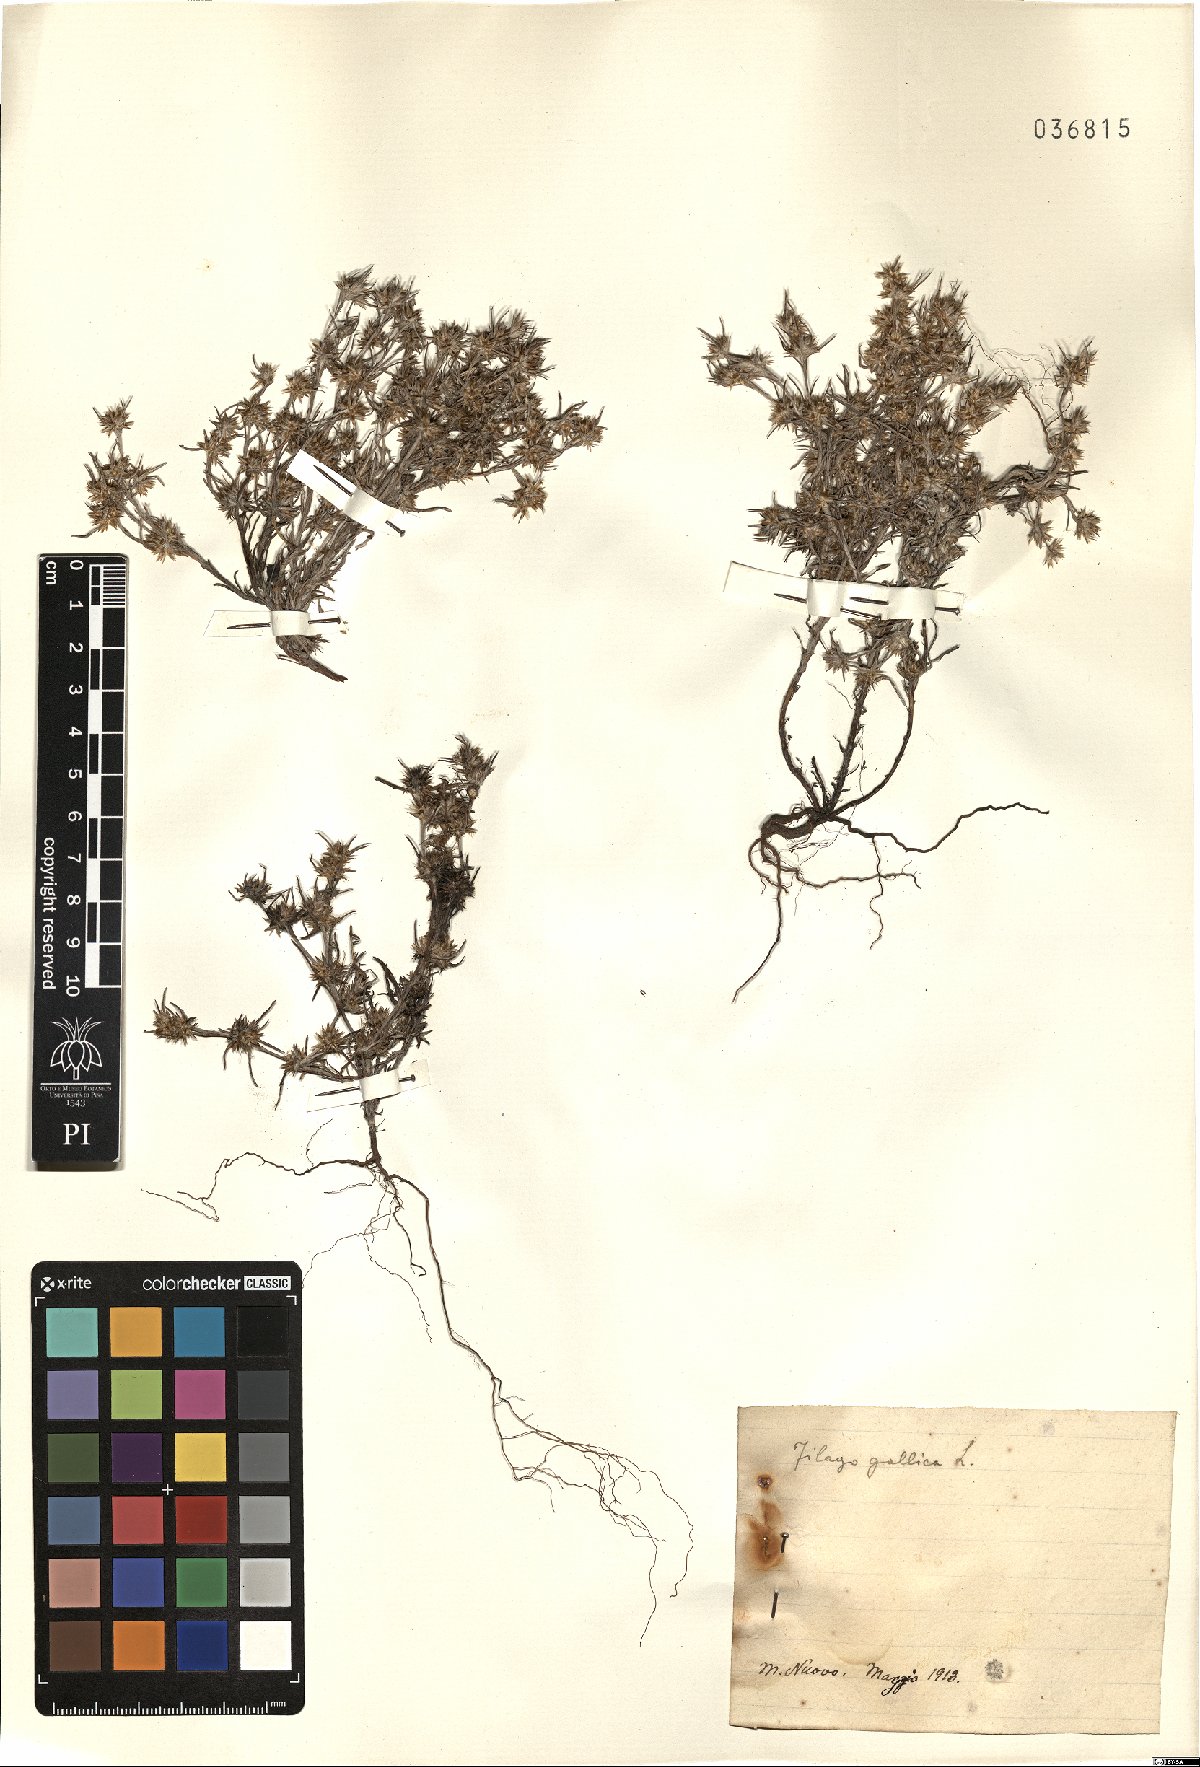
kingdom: Plantae
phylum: Tracheophyta
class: Magnoliopsida
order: Asterales
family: Asteraceae
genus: Logfia
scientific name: Logfia gallica
